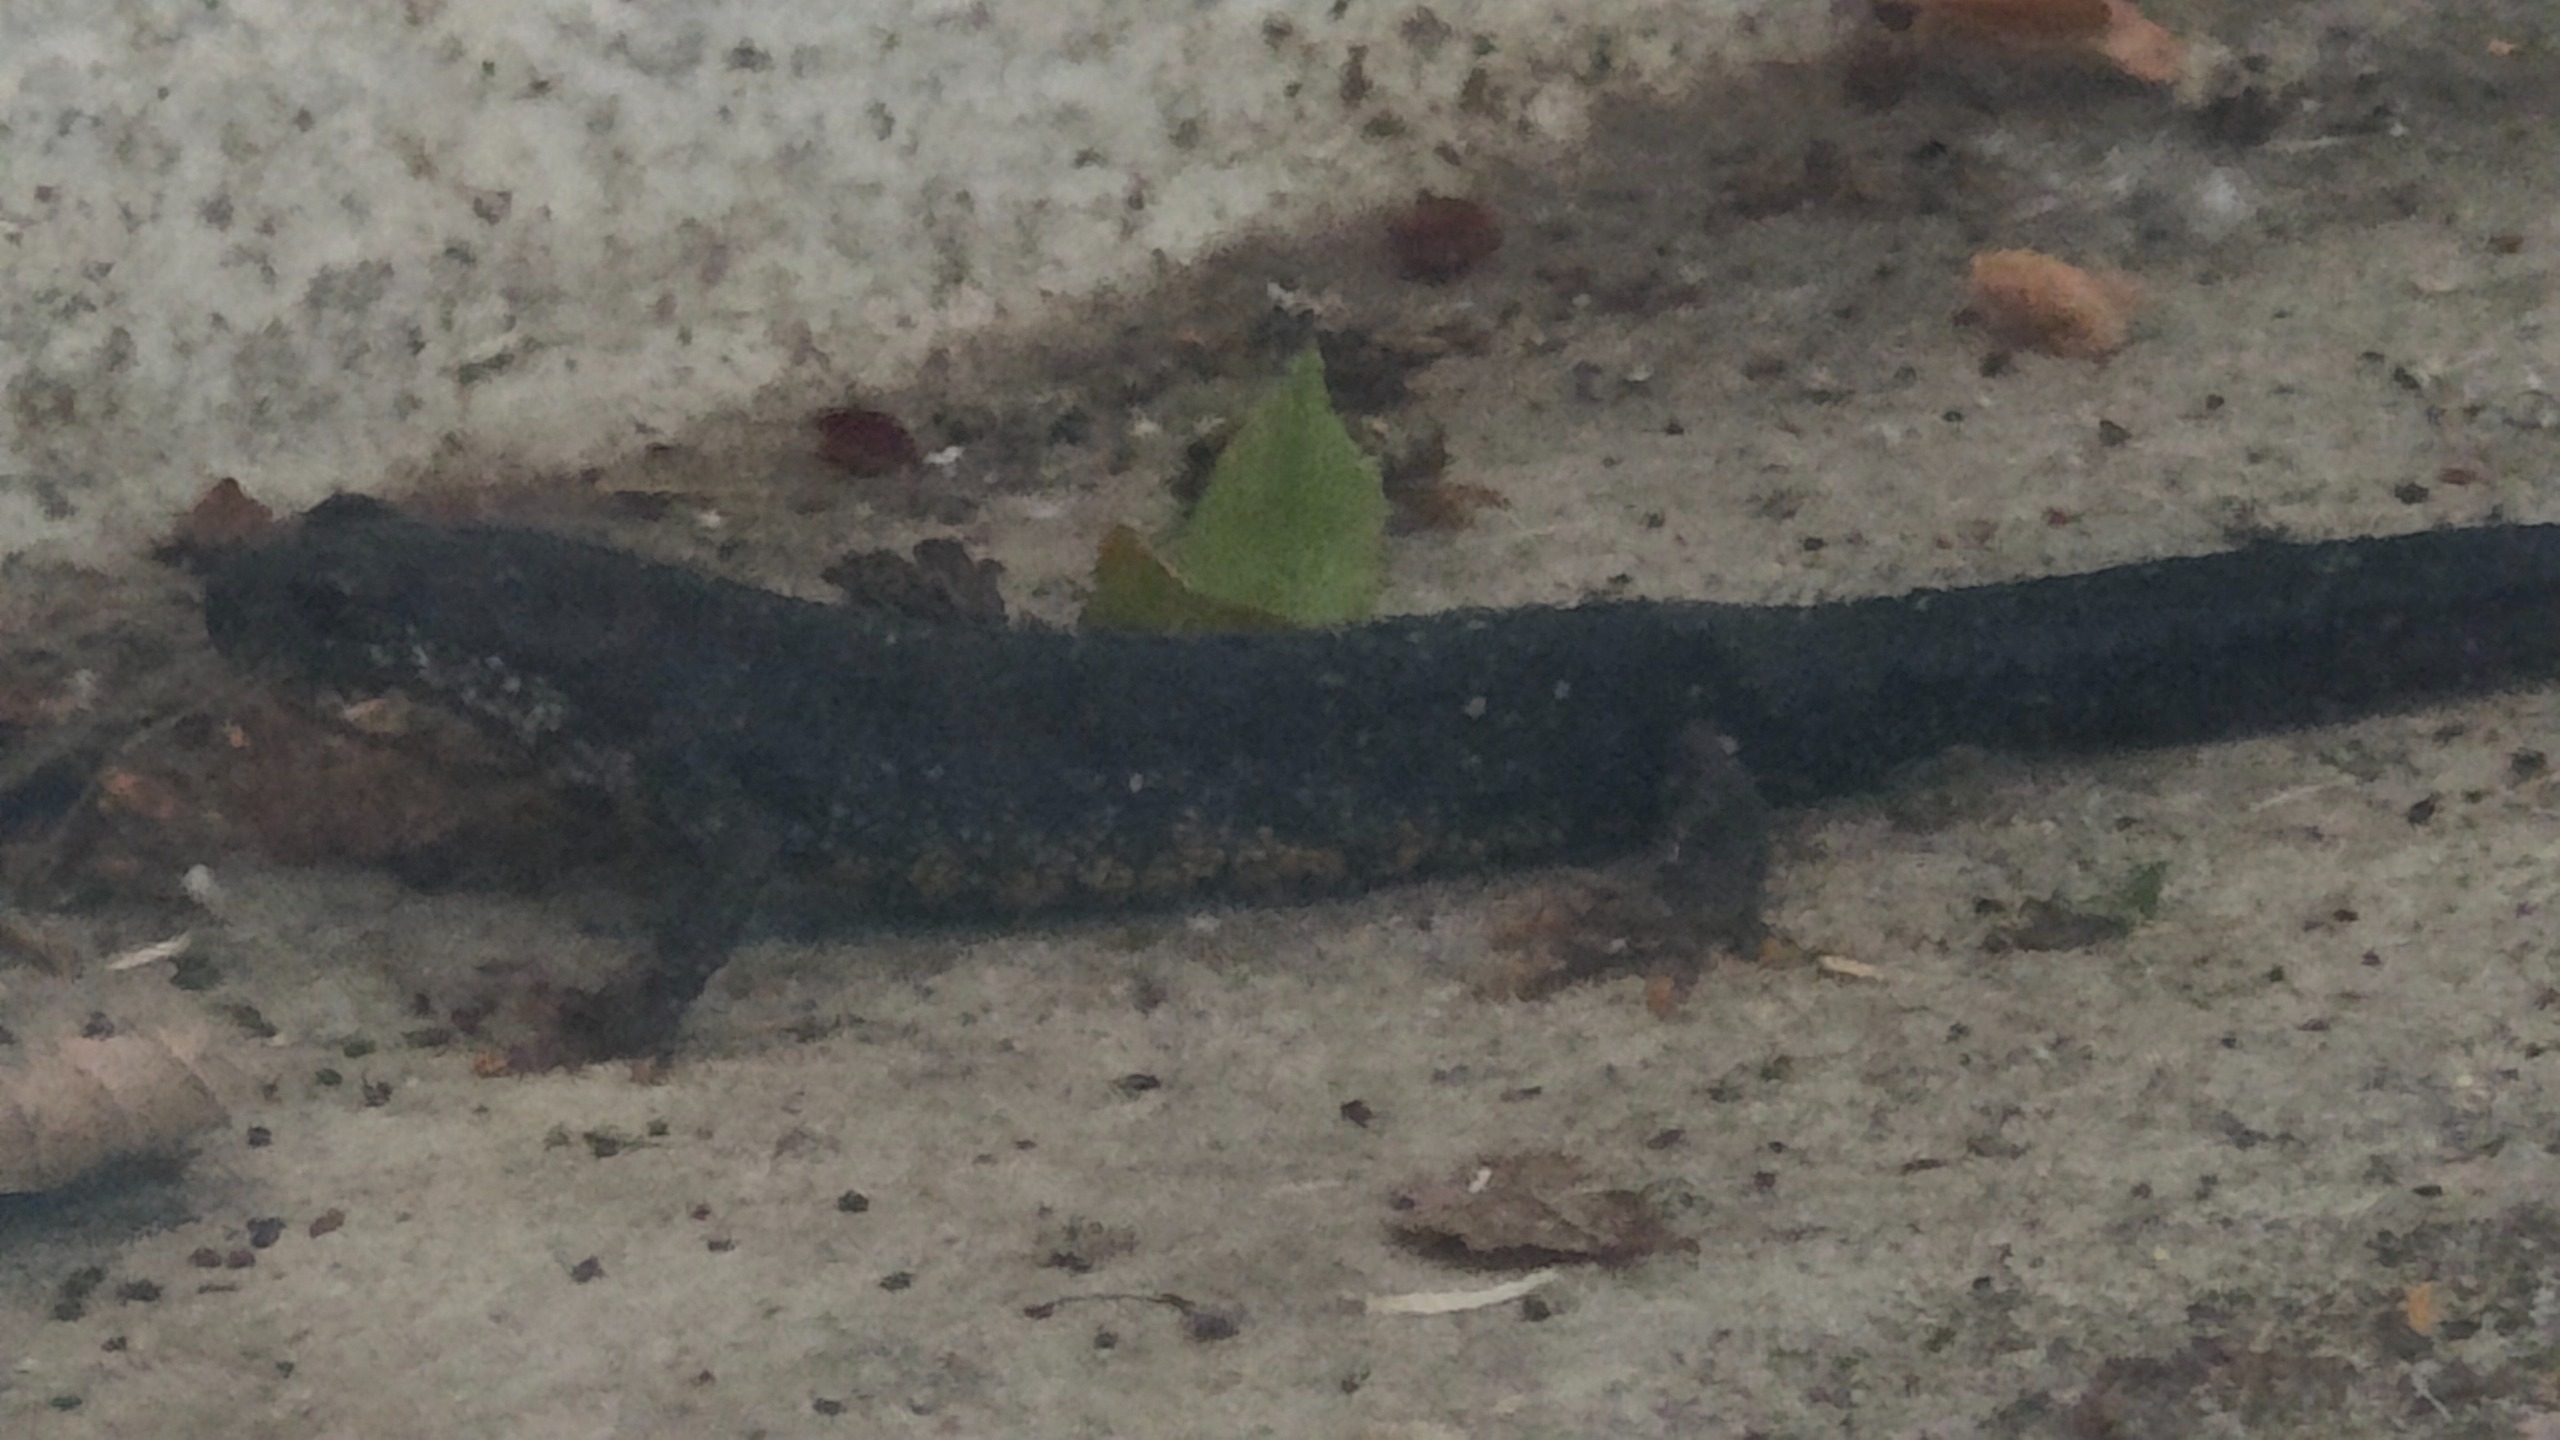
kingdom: Animalia
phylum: Chordata
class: Amphibia
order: Caudata
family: Salamandridae
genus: Triturus
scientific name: Triturus cristatus
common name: Stor vandsalamander
